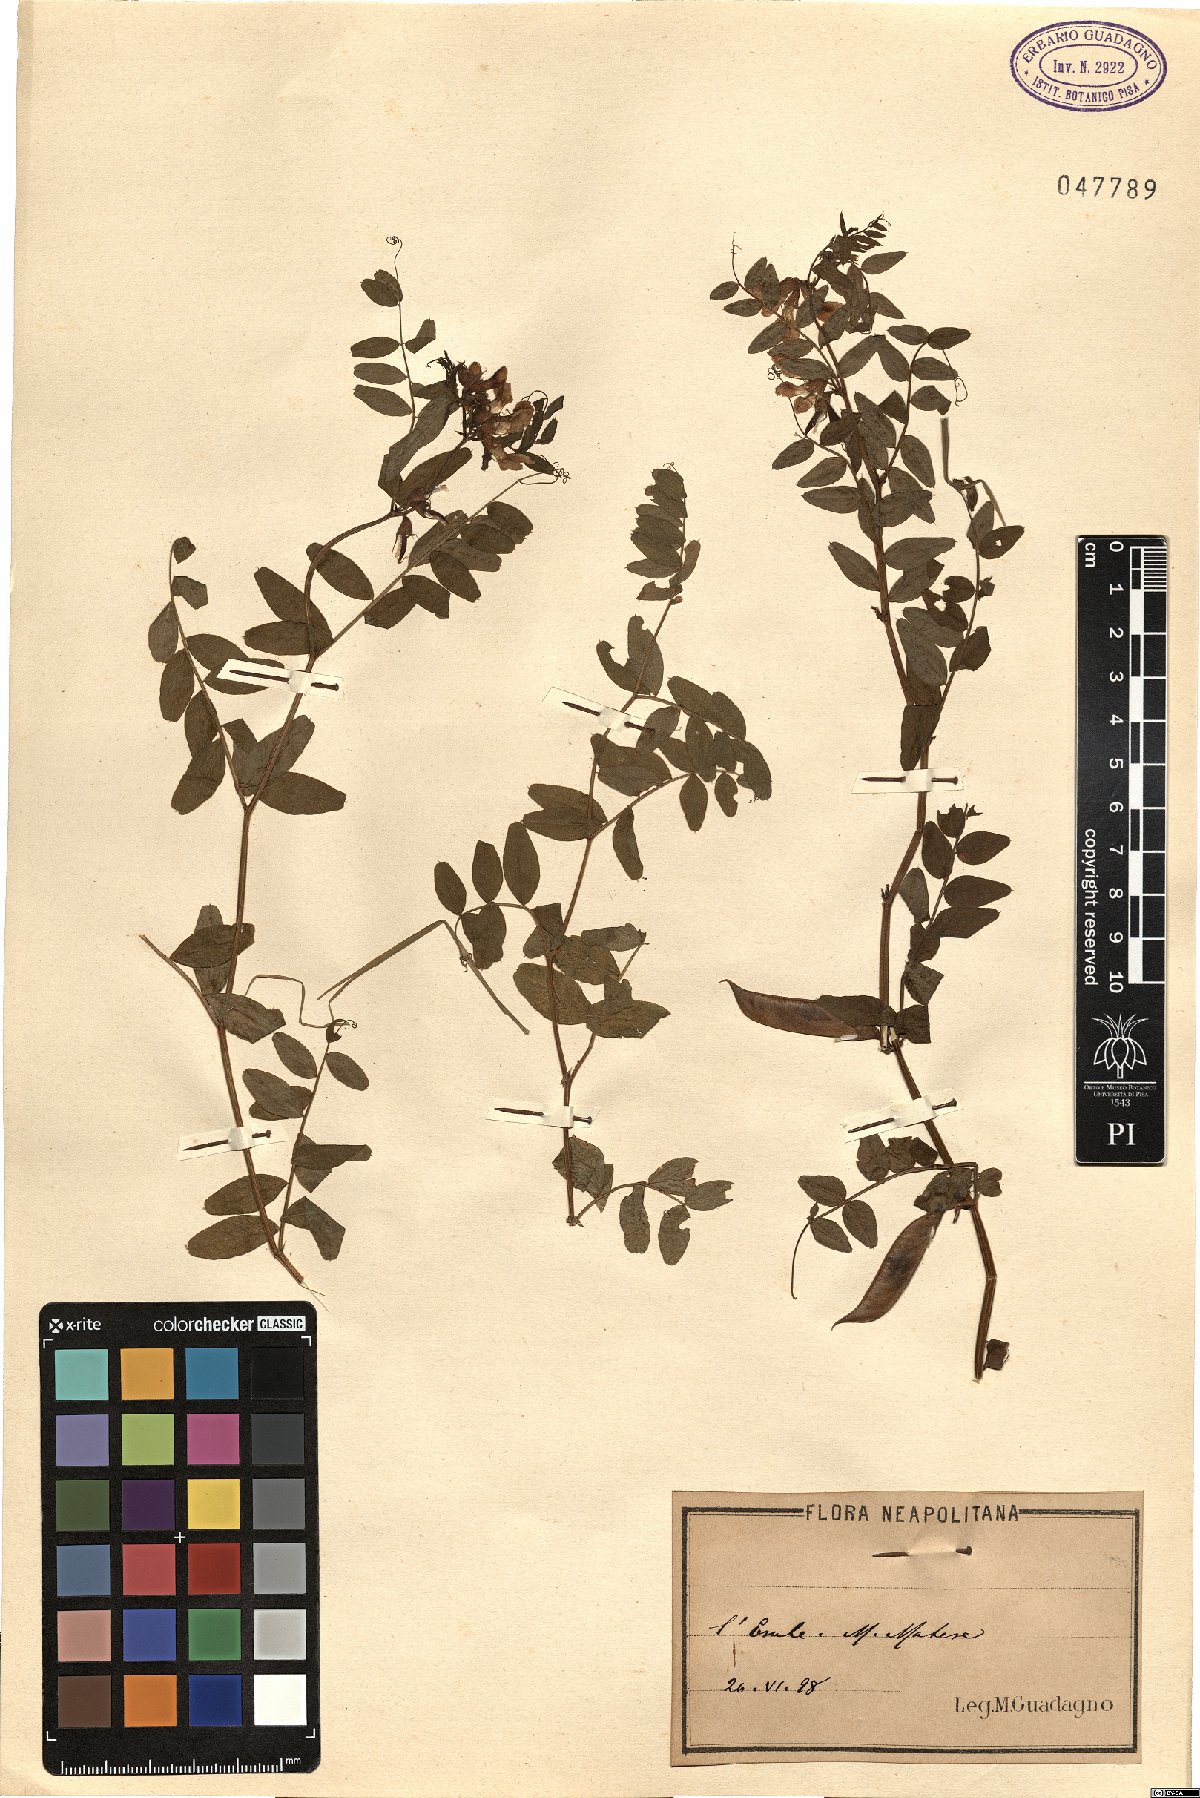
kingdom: Plantae
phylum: Tracheophyta
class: Magnoliopsida
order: Fabales
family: Fabaceae
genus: Vicia
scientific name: Vicia
